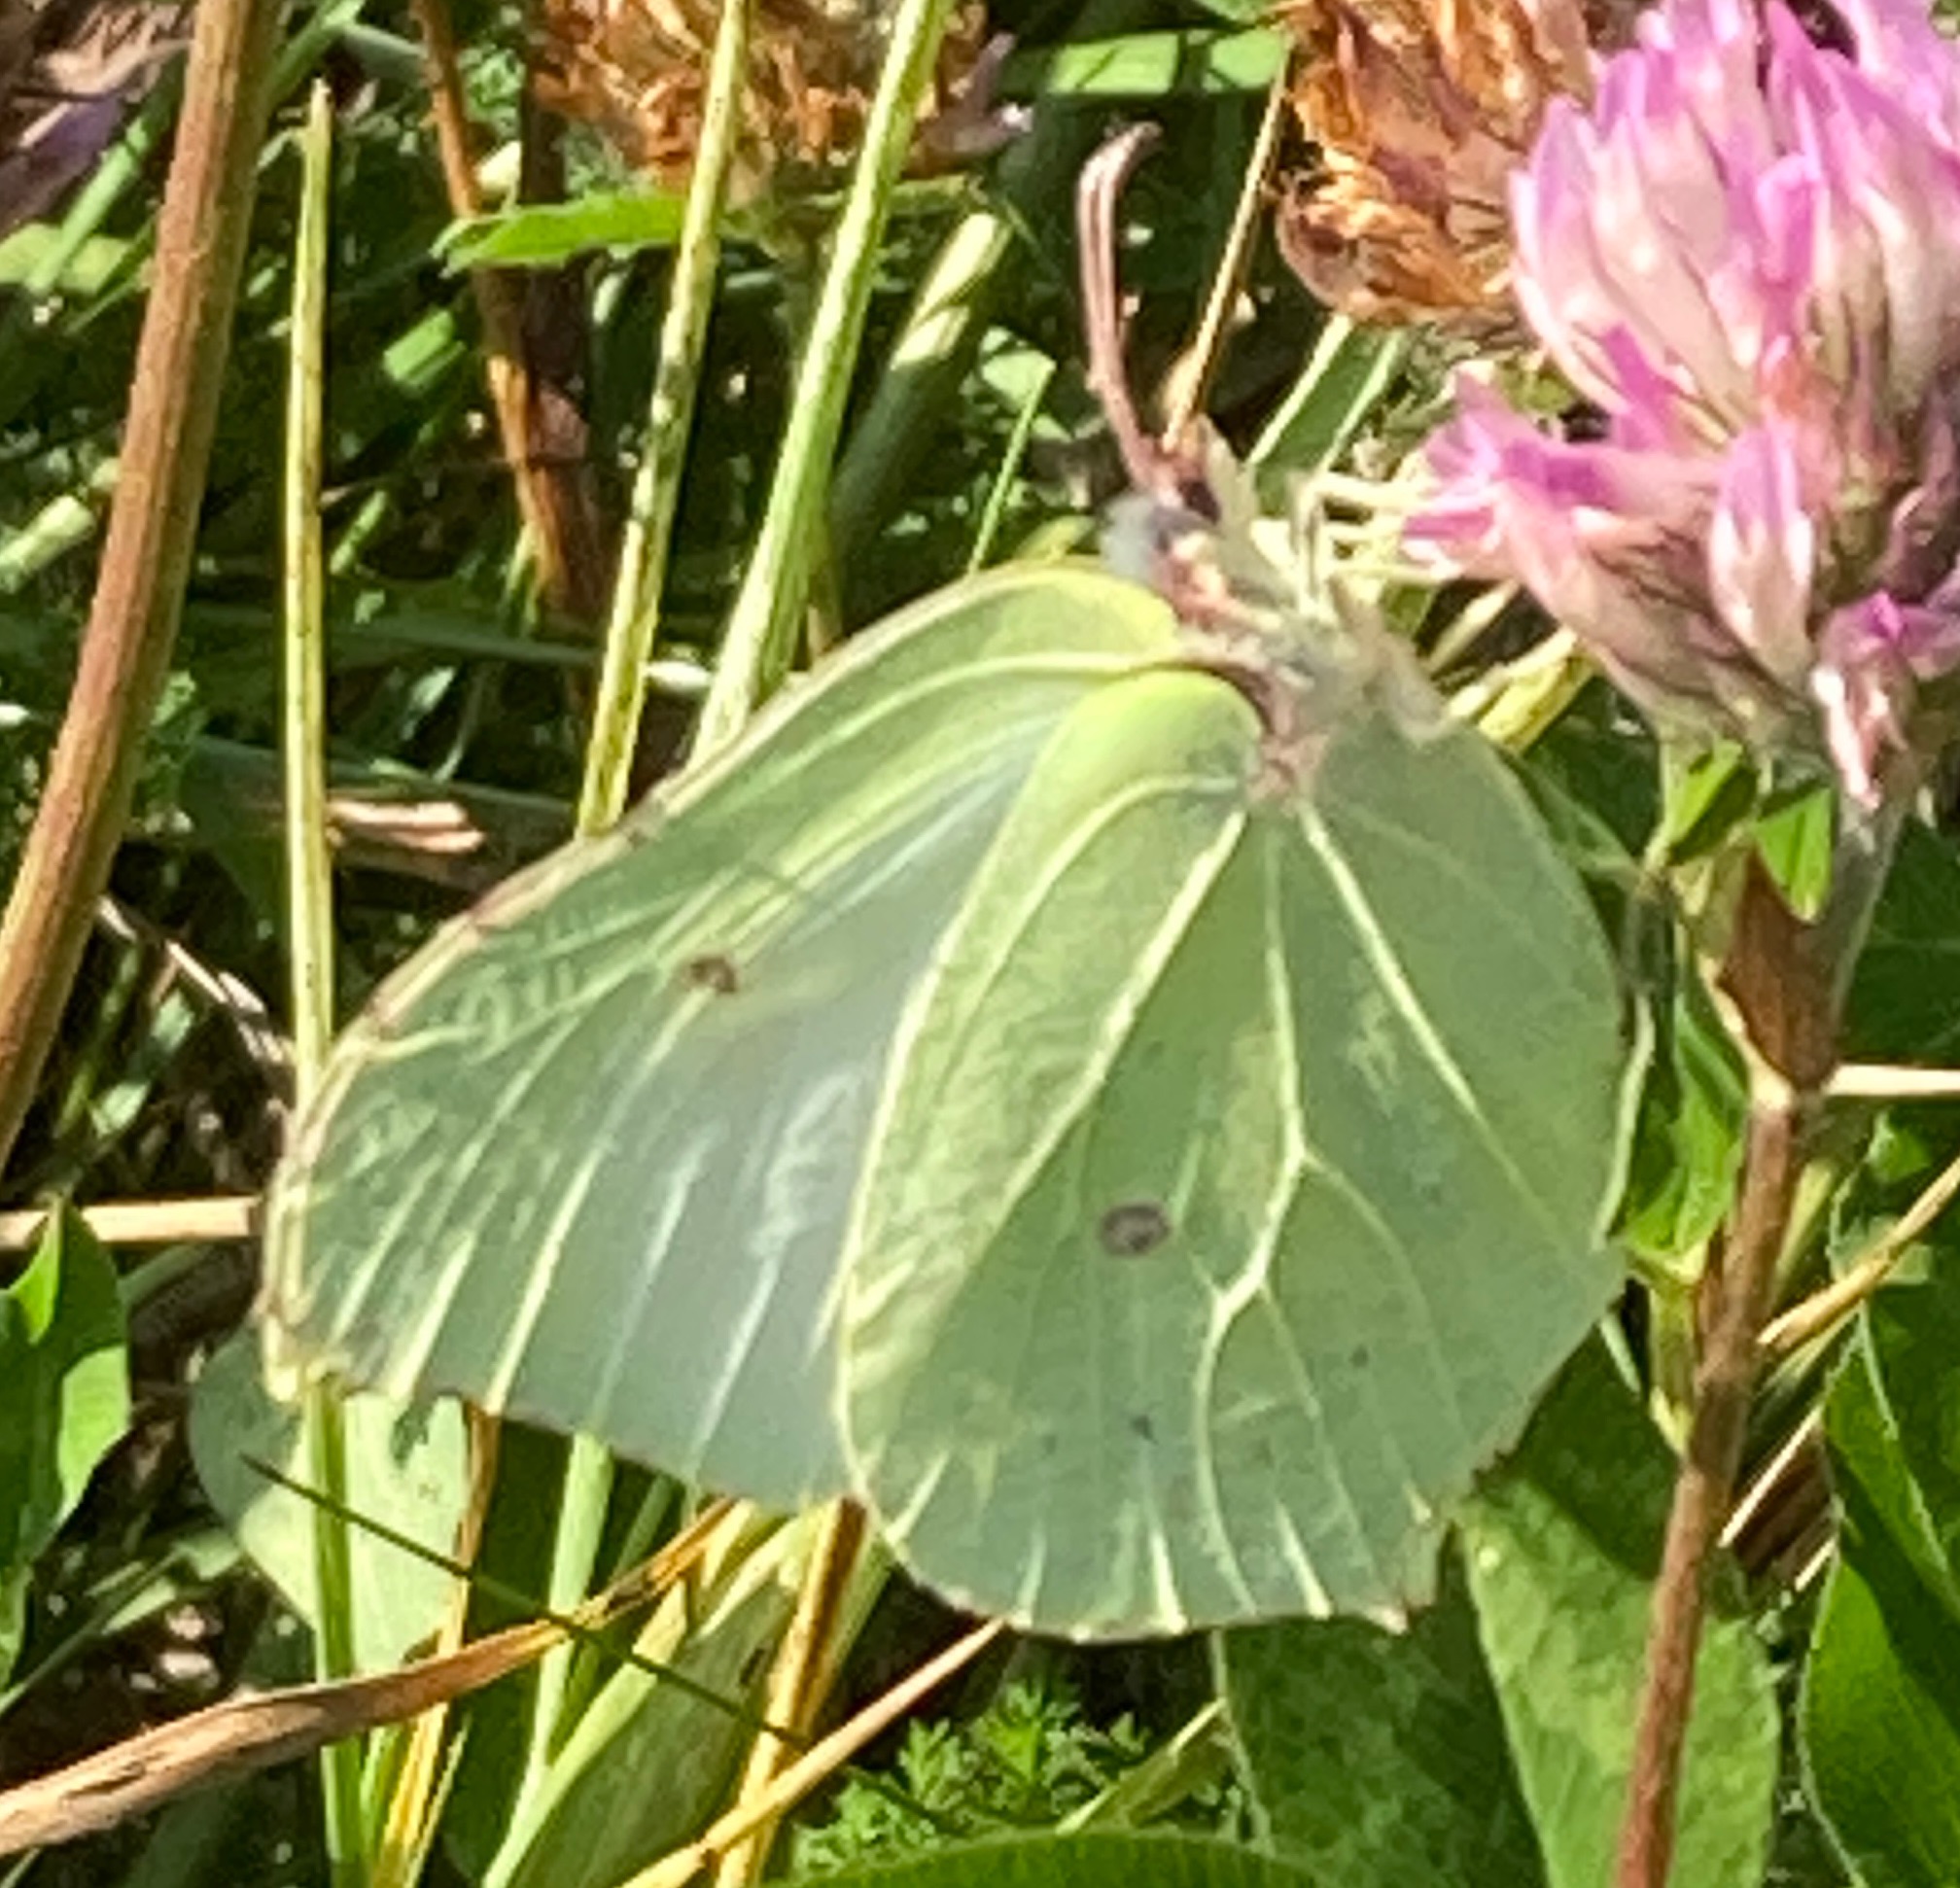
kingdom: Animalia
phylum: Arthropoda
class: Insecta
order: Lepidoptera
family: Pieridae
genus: Gonepteryx
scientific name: Gonepteryx rhamni
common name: Citronsommerfugl
